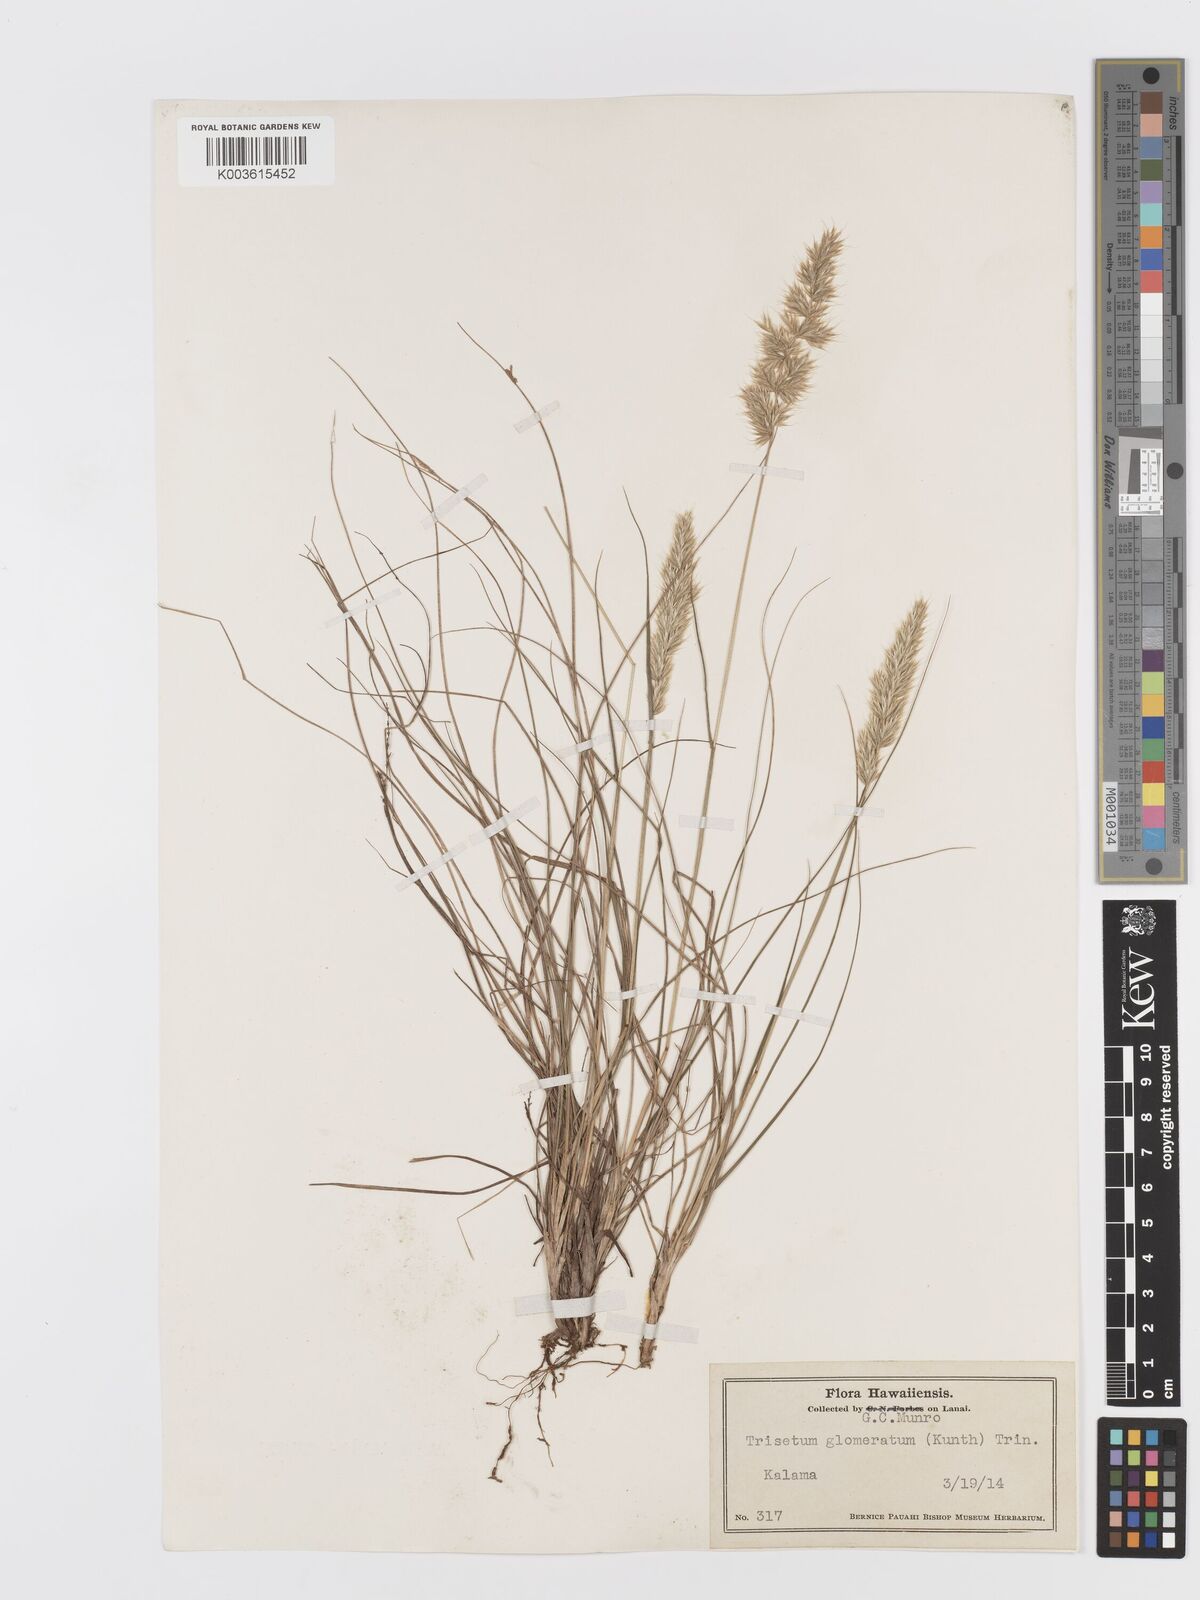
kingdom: Plantae
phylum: Tracheophyta
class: Liliopsida
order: Poales
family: Poaceae
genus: Trisetum
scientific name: Trisetum glomeratum
